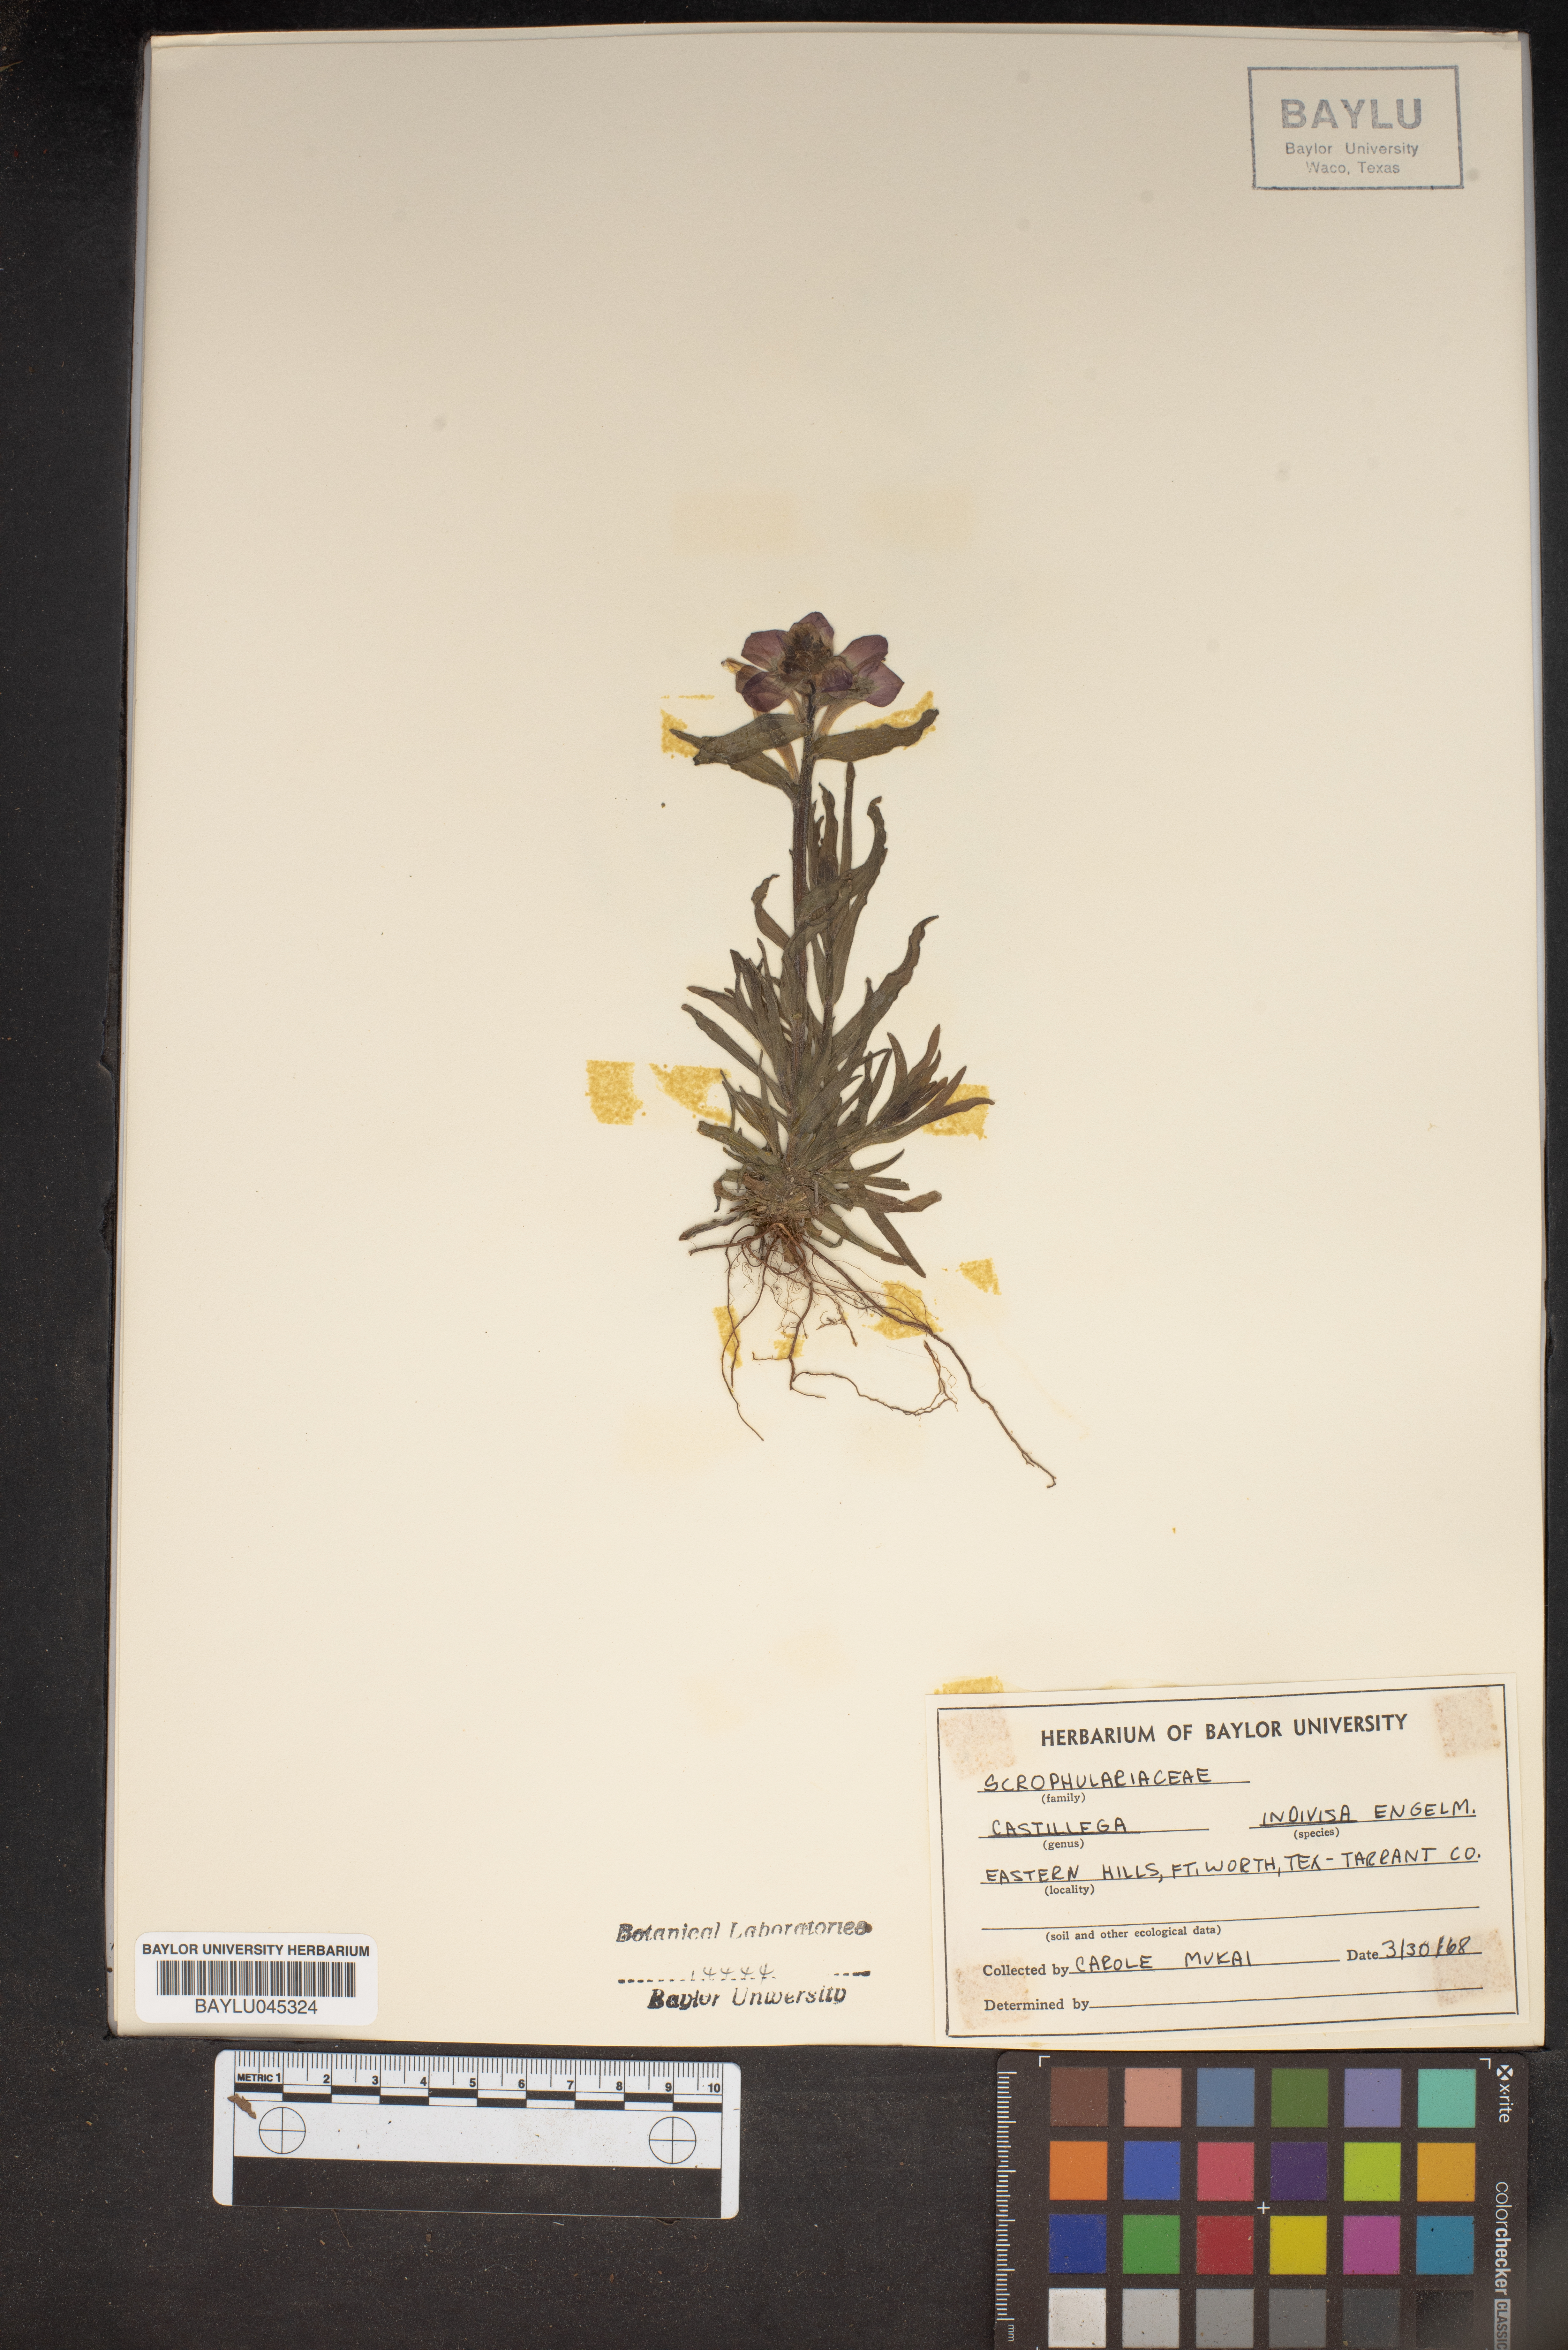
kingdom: Plantae
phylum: Tracheophyta
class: Magnoliopsida
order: Lamiales
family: Orobanchaceae
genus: Castilleja
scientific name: Castilleja indivisa
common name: Texas paintbrush
